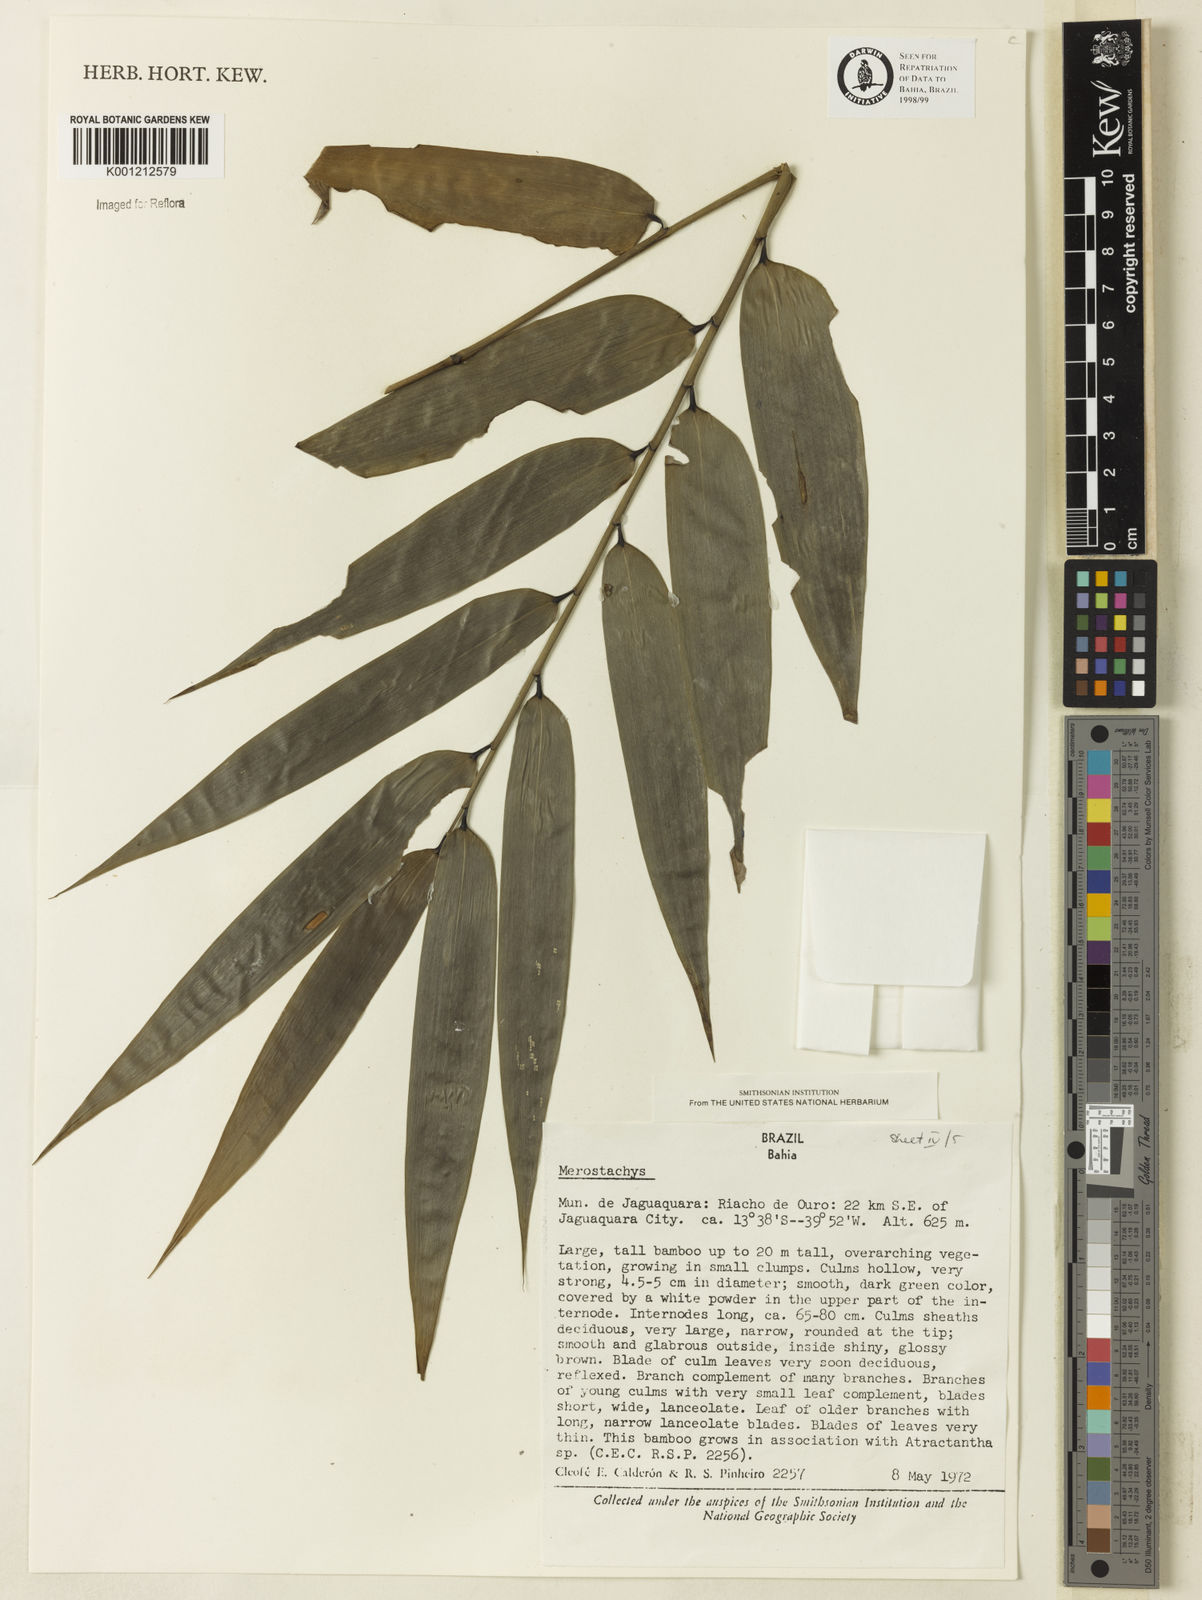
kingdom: Plantae
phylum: Tracheophyta
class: Liliopsida
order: Poales
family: Poaceae
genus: Merostachys
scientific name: Merostachys
